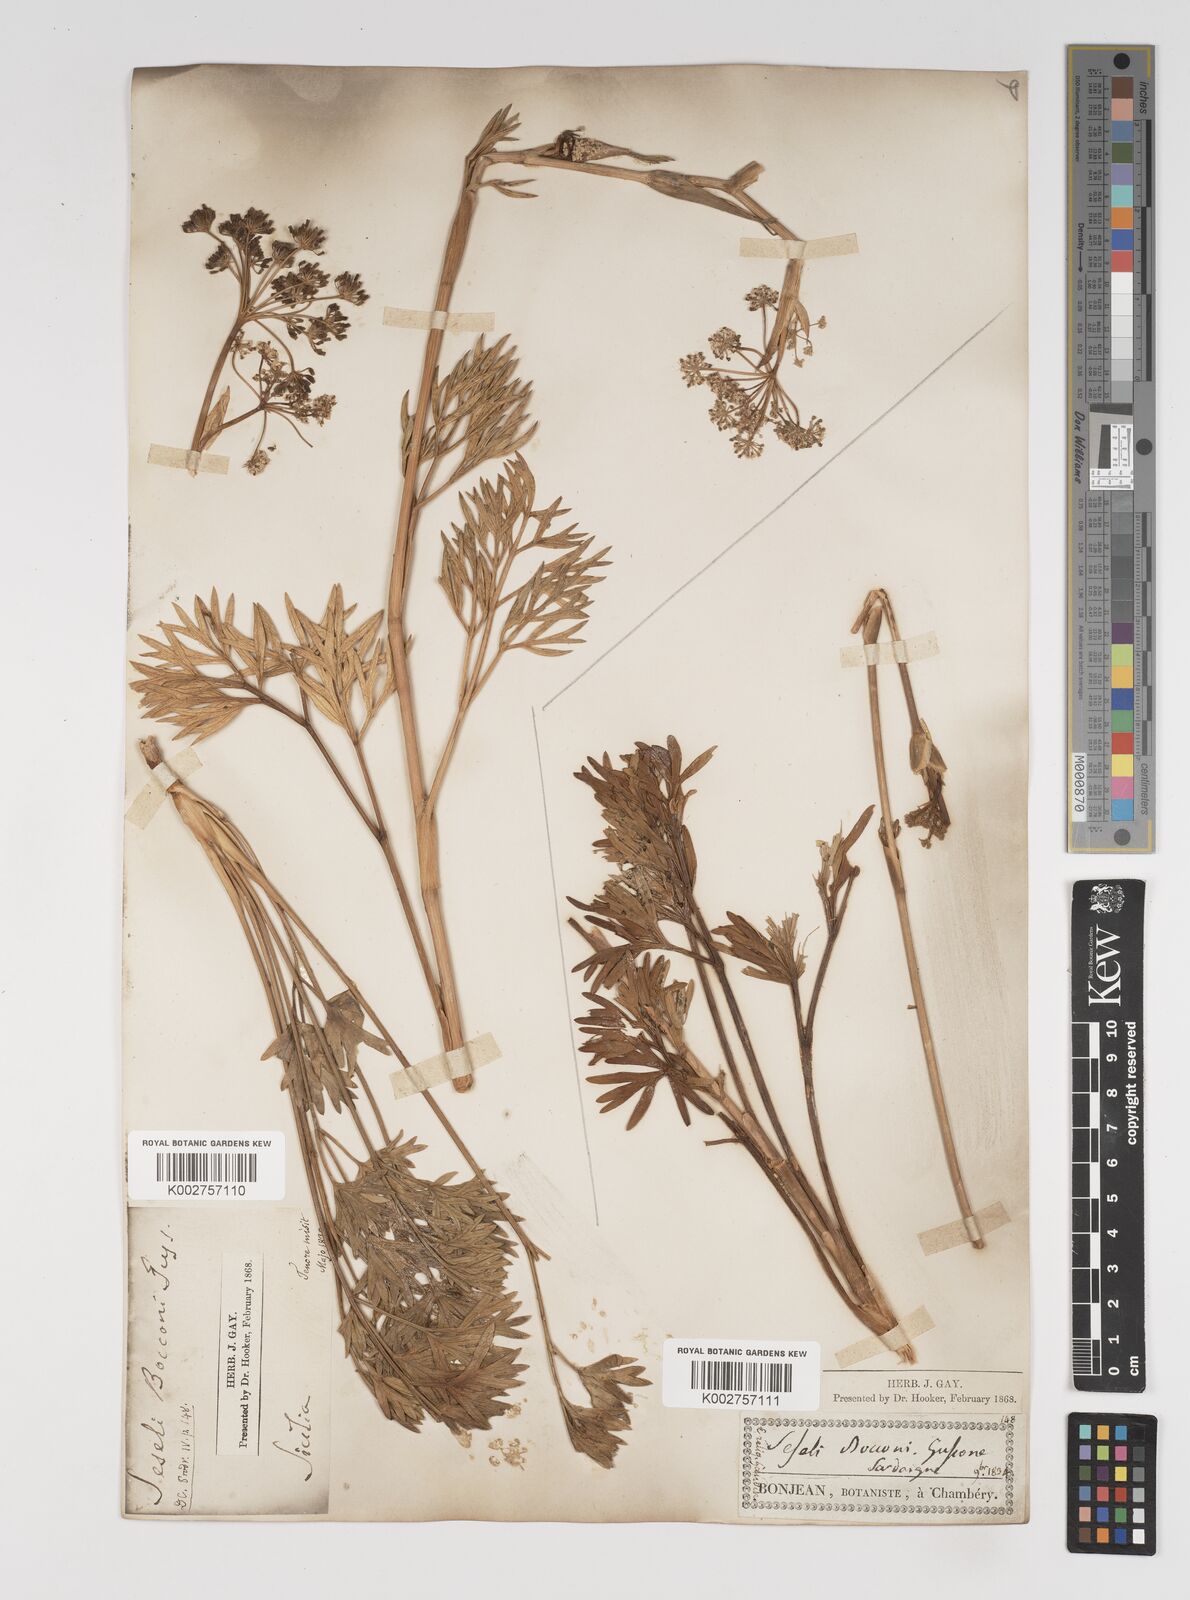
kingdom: Plantae
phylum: Tracheophyta
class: Magnoliopsida
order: Apiales
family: Apiaceae
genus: Seseli
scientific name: Seseli bocconei
